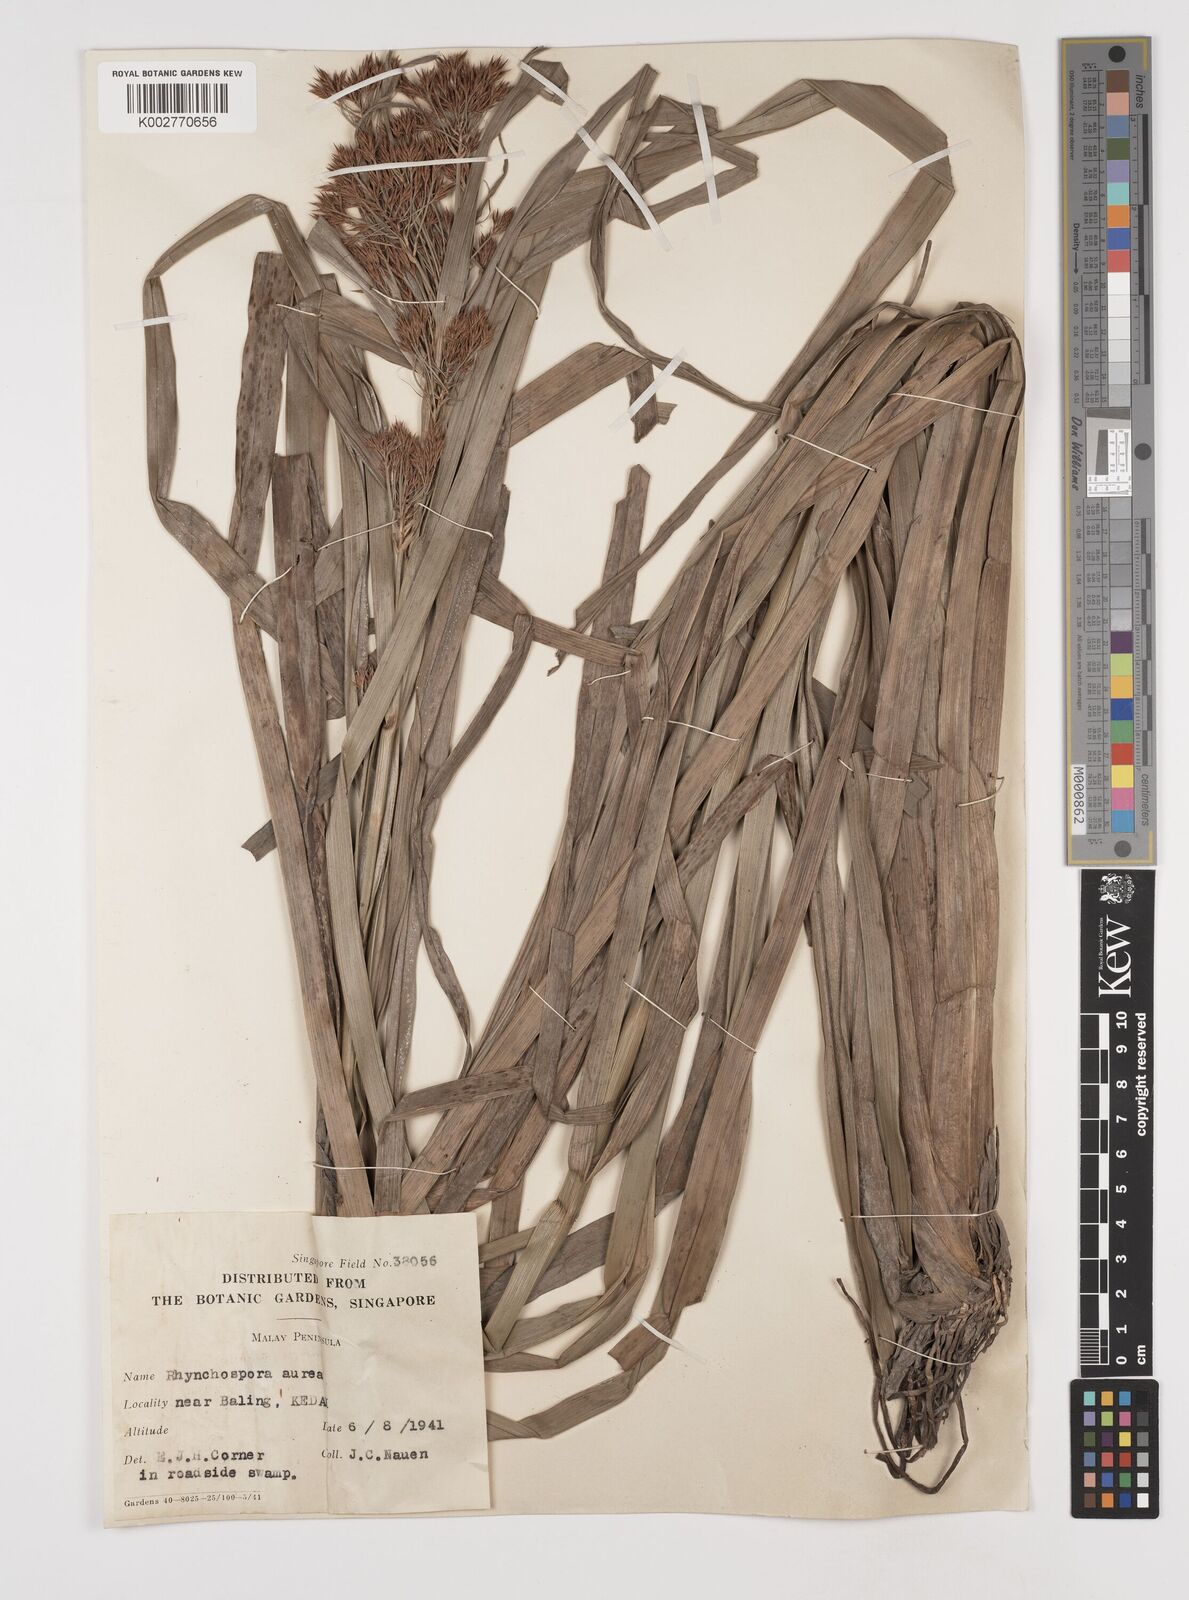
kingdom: Plantae
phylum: Tracheophyta
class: Liliopsida
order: Poales
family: Cyperaceae
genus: Rhynchospora
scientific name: Rhynchospora corymbosa
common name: Golden beak sedge
